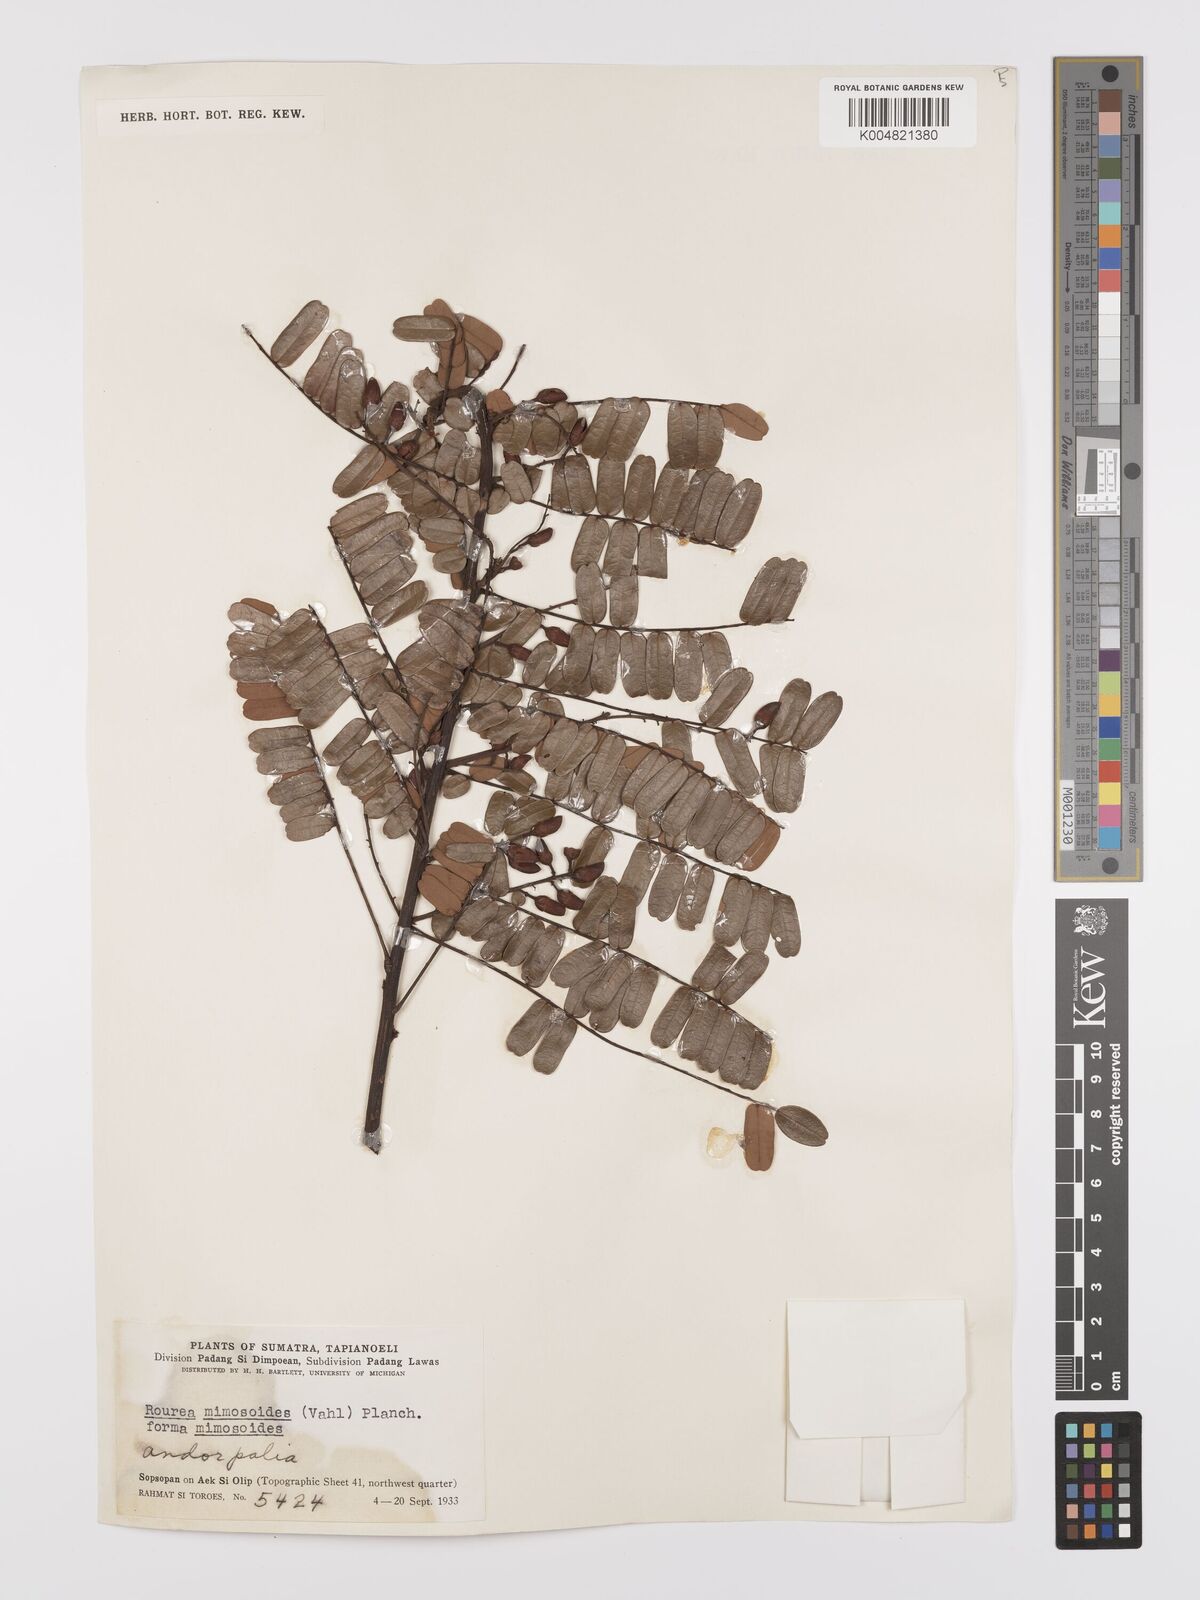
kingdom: Plantae
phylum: Tracheophyta
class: Magnoliopsida
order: Oxalidales
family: Connaraceae
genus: Rourea
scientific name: Rourea mimosoides
